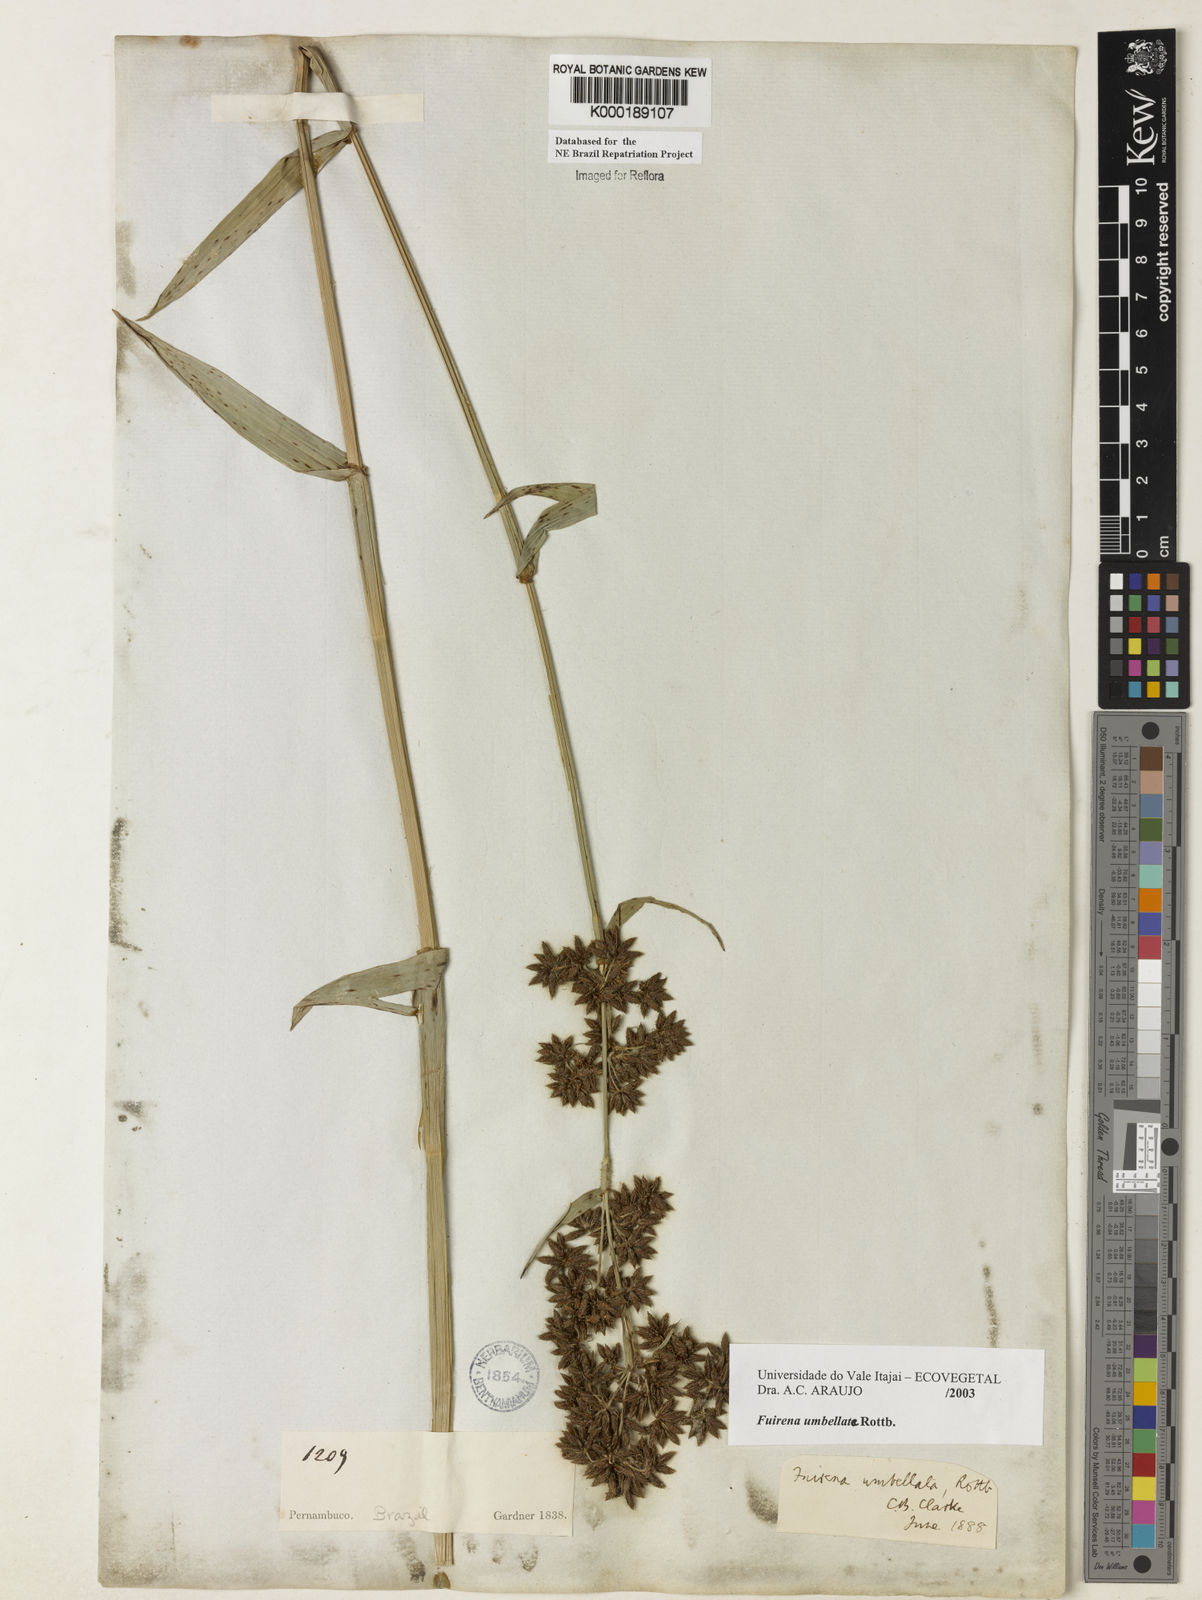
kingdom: Plantae
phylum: Tracheophyta
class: Liliopsida
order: Poales
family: Cyperaceae
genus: Fuirena
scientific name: Fuirena umbellata
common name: Yefen
